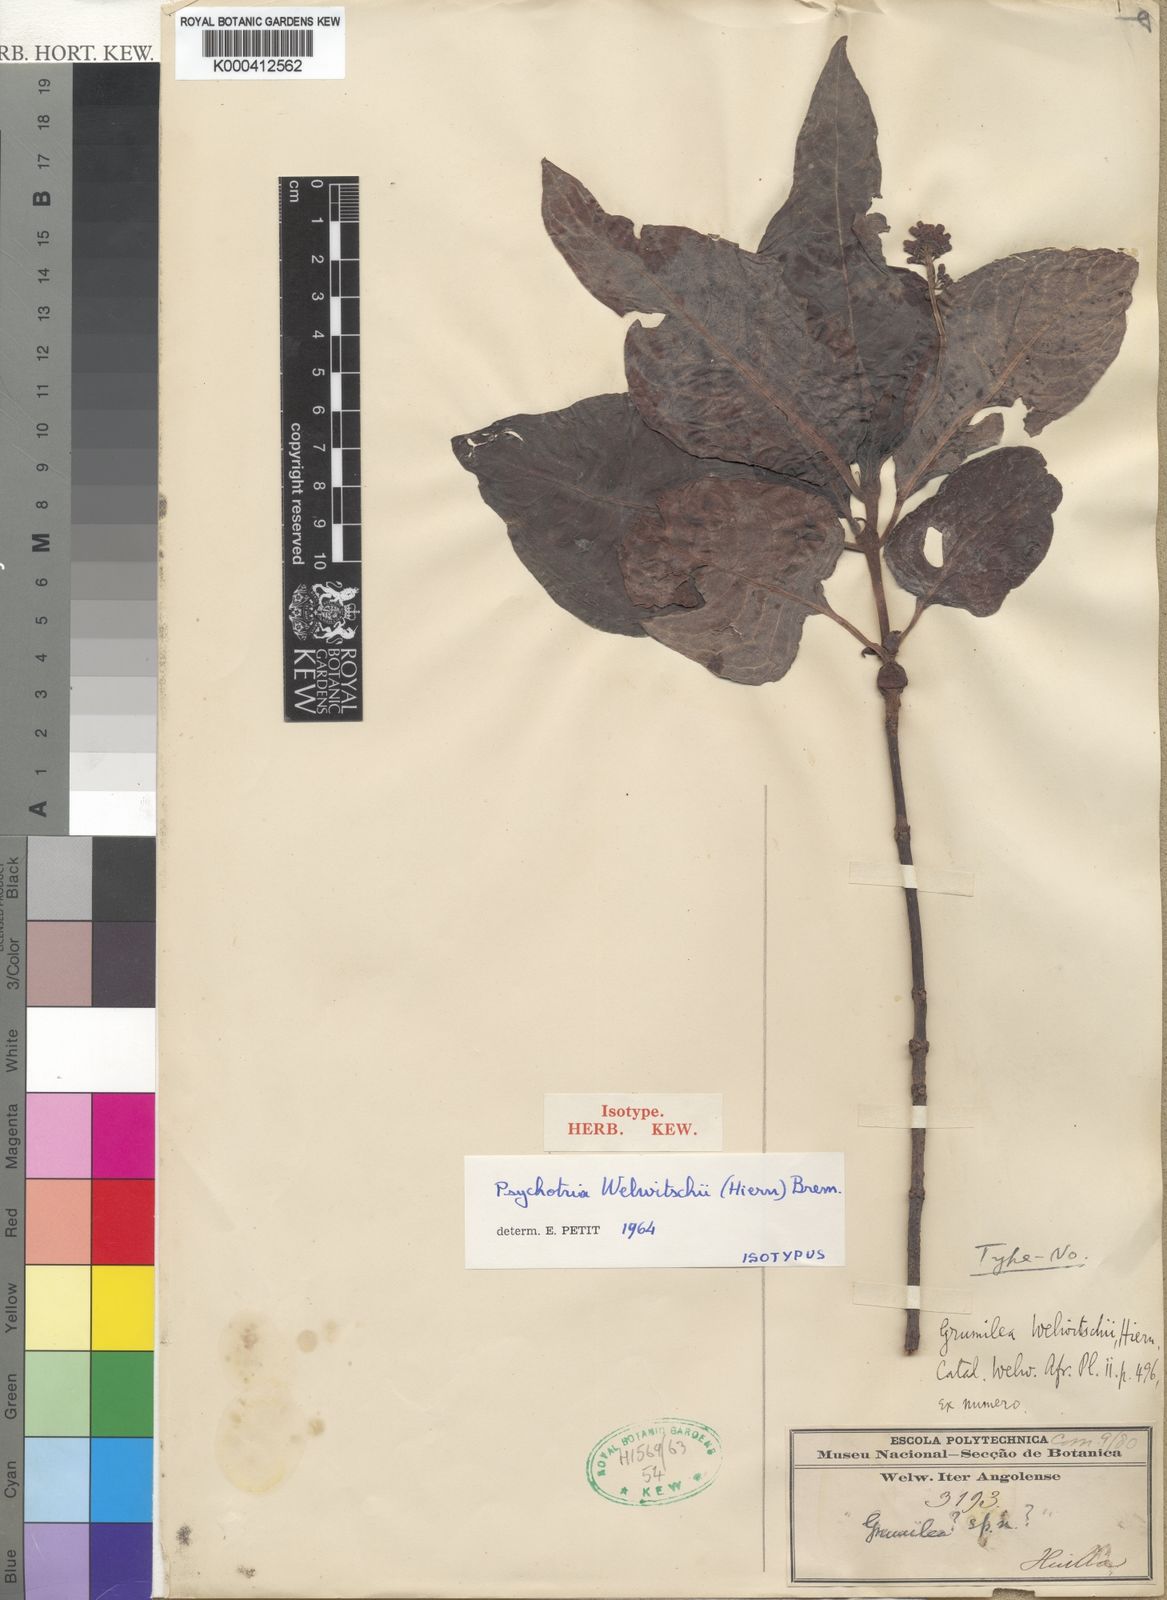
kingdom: Plantae
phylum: Tracheophyta
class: Magnoliopsida
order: Gentianales
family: Rubiaceae
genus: Psychotria
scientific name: Psychotria welwitschii
